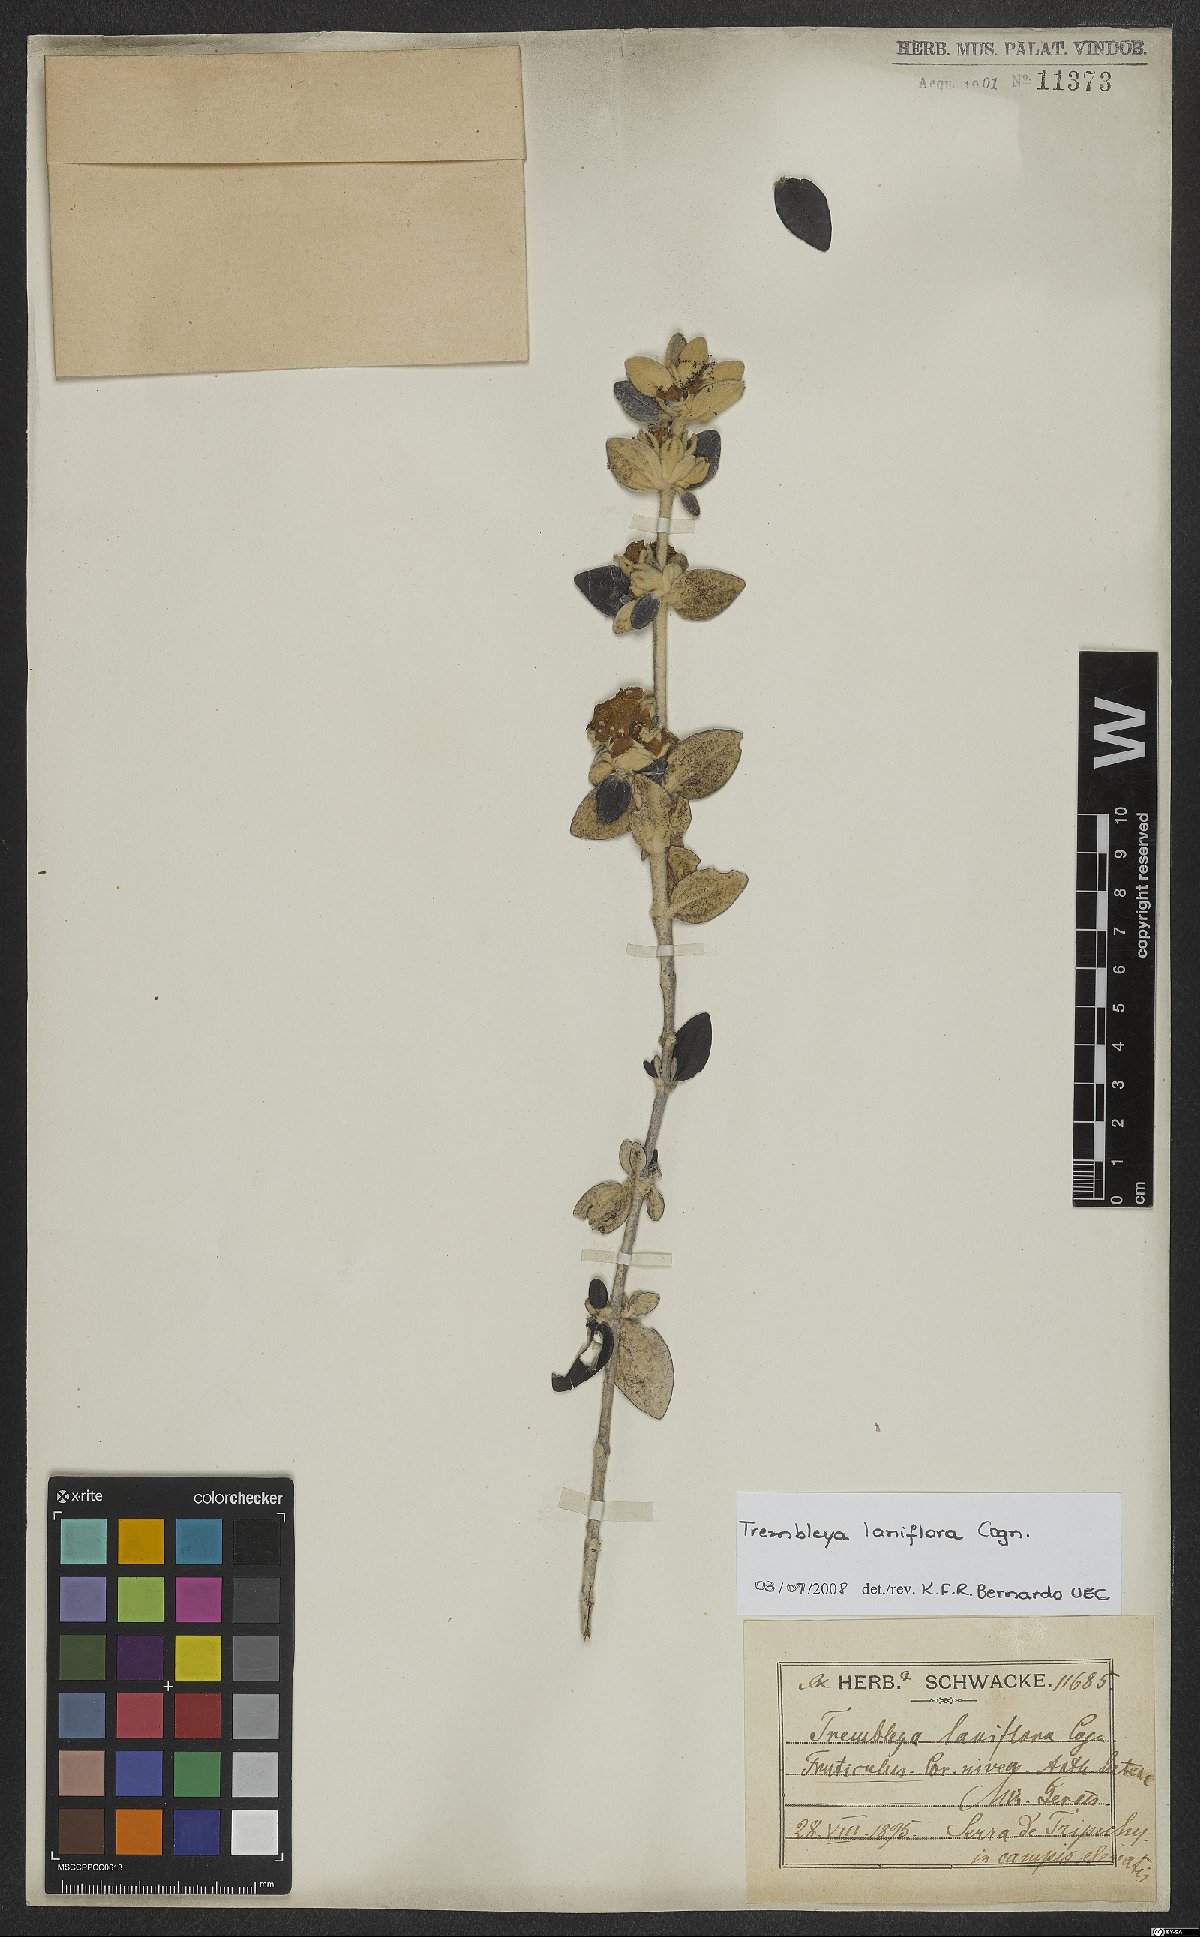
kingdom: Plantae
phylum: Tracheophyta
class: Magnoliopsida
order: Myrtales
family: Melastomataceae
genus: Microlicia
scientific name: Microlicia laniflora
